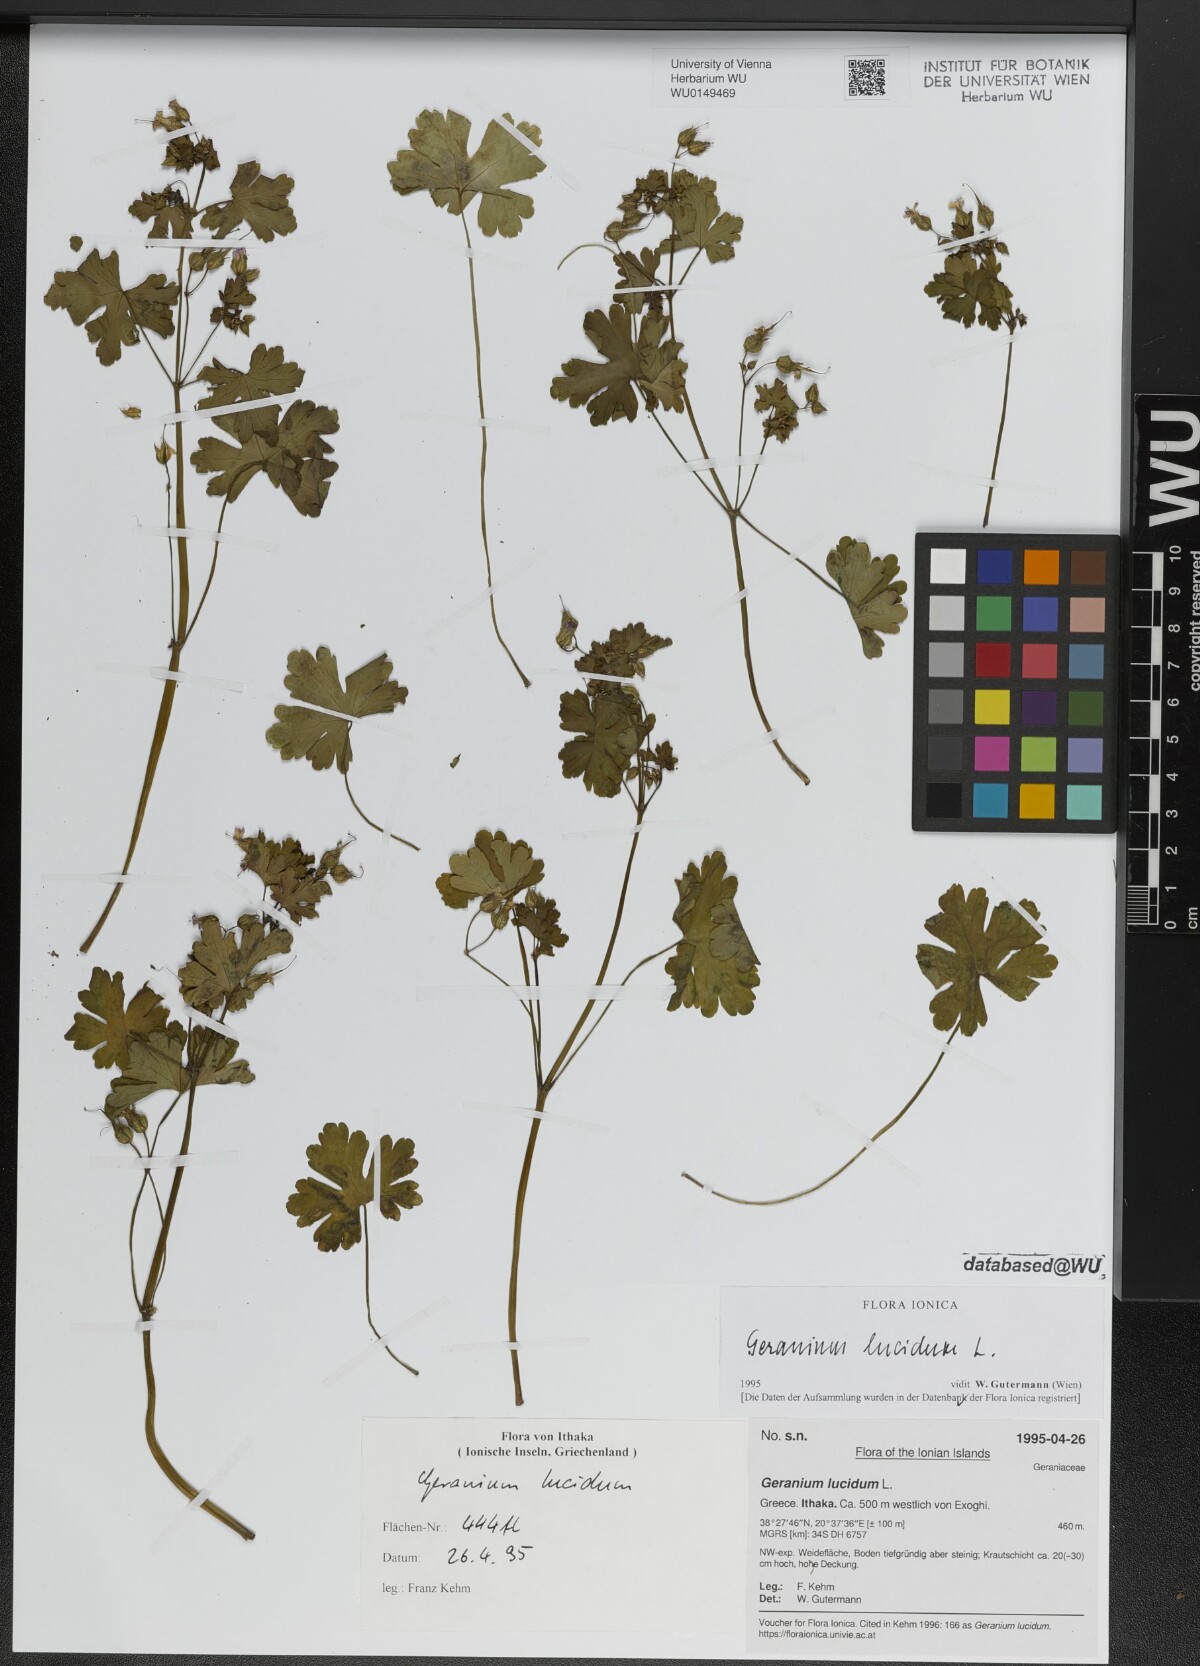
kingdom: Plantae
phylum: Tracheophyta
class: Magnoliopsida
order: Geraniales
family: Geraniaceae
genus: Geranium
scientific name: Geranium lucidum
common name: Shining crane's-bill
